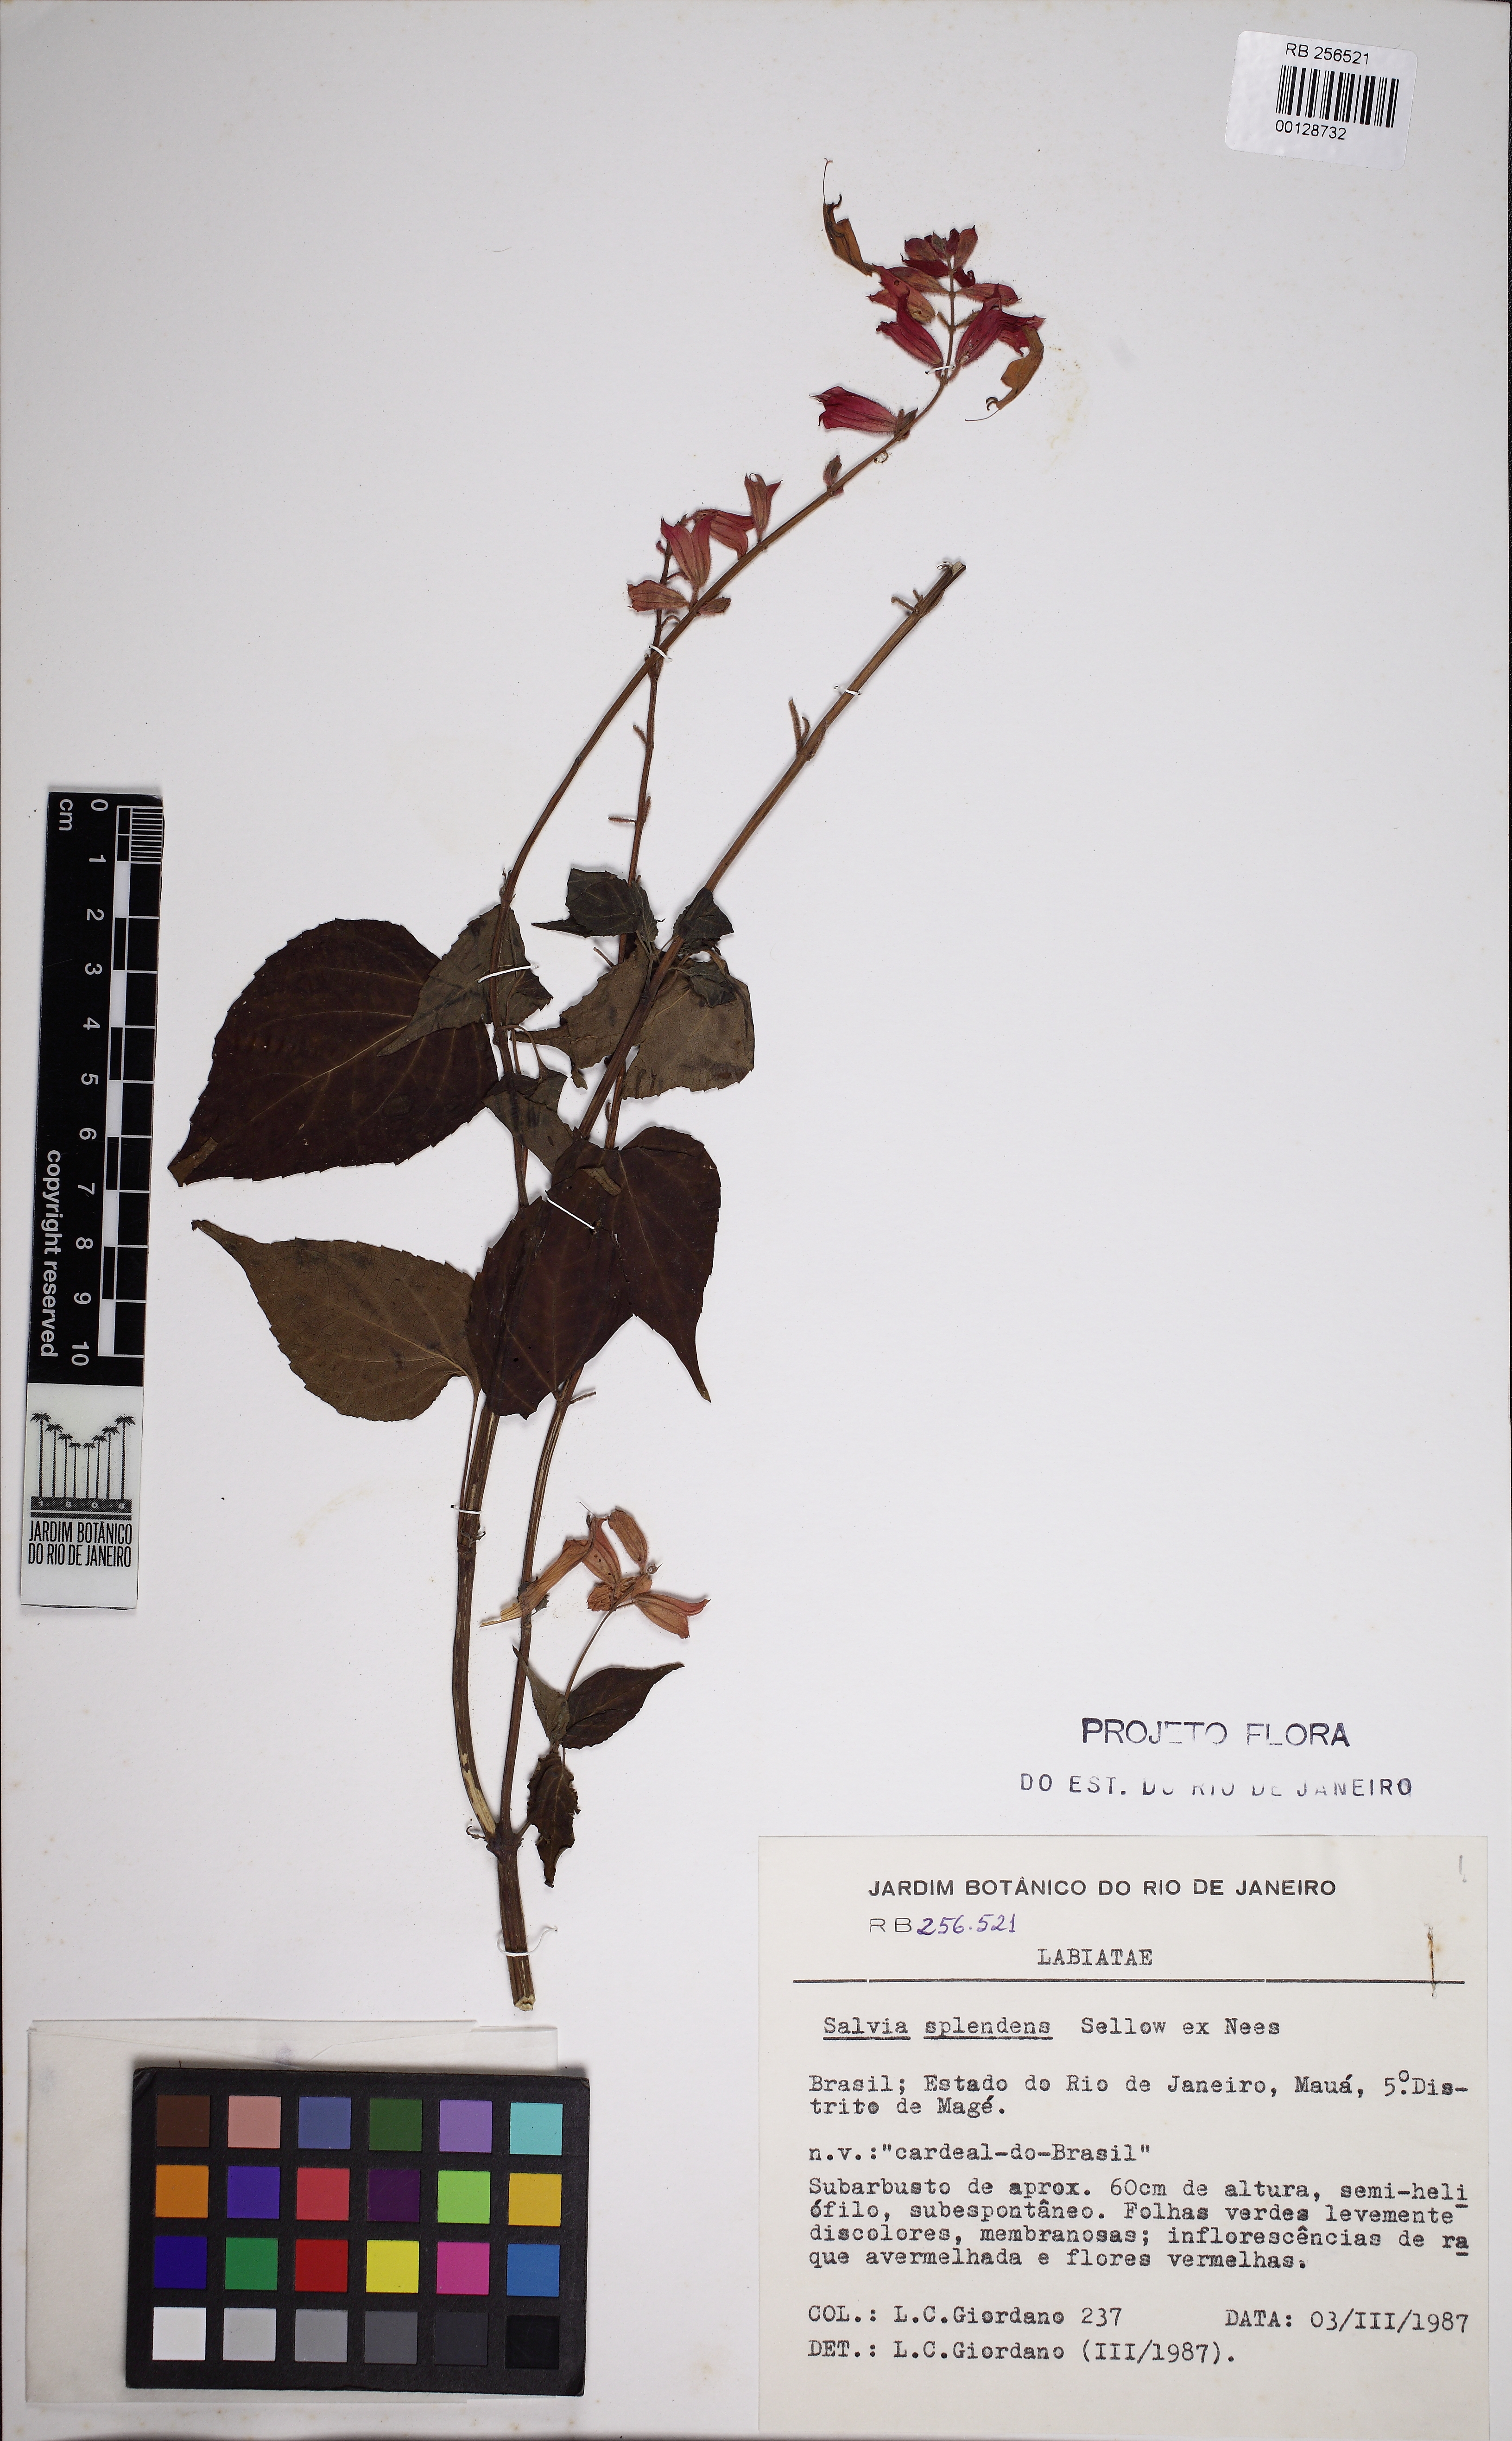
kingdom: Plantae
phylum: Tracheophyta
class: Magnoliopsida
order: Lamiales
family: Lamiaceae
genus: Salvia
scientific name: Salvia splendens
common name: Scarlet sage
